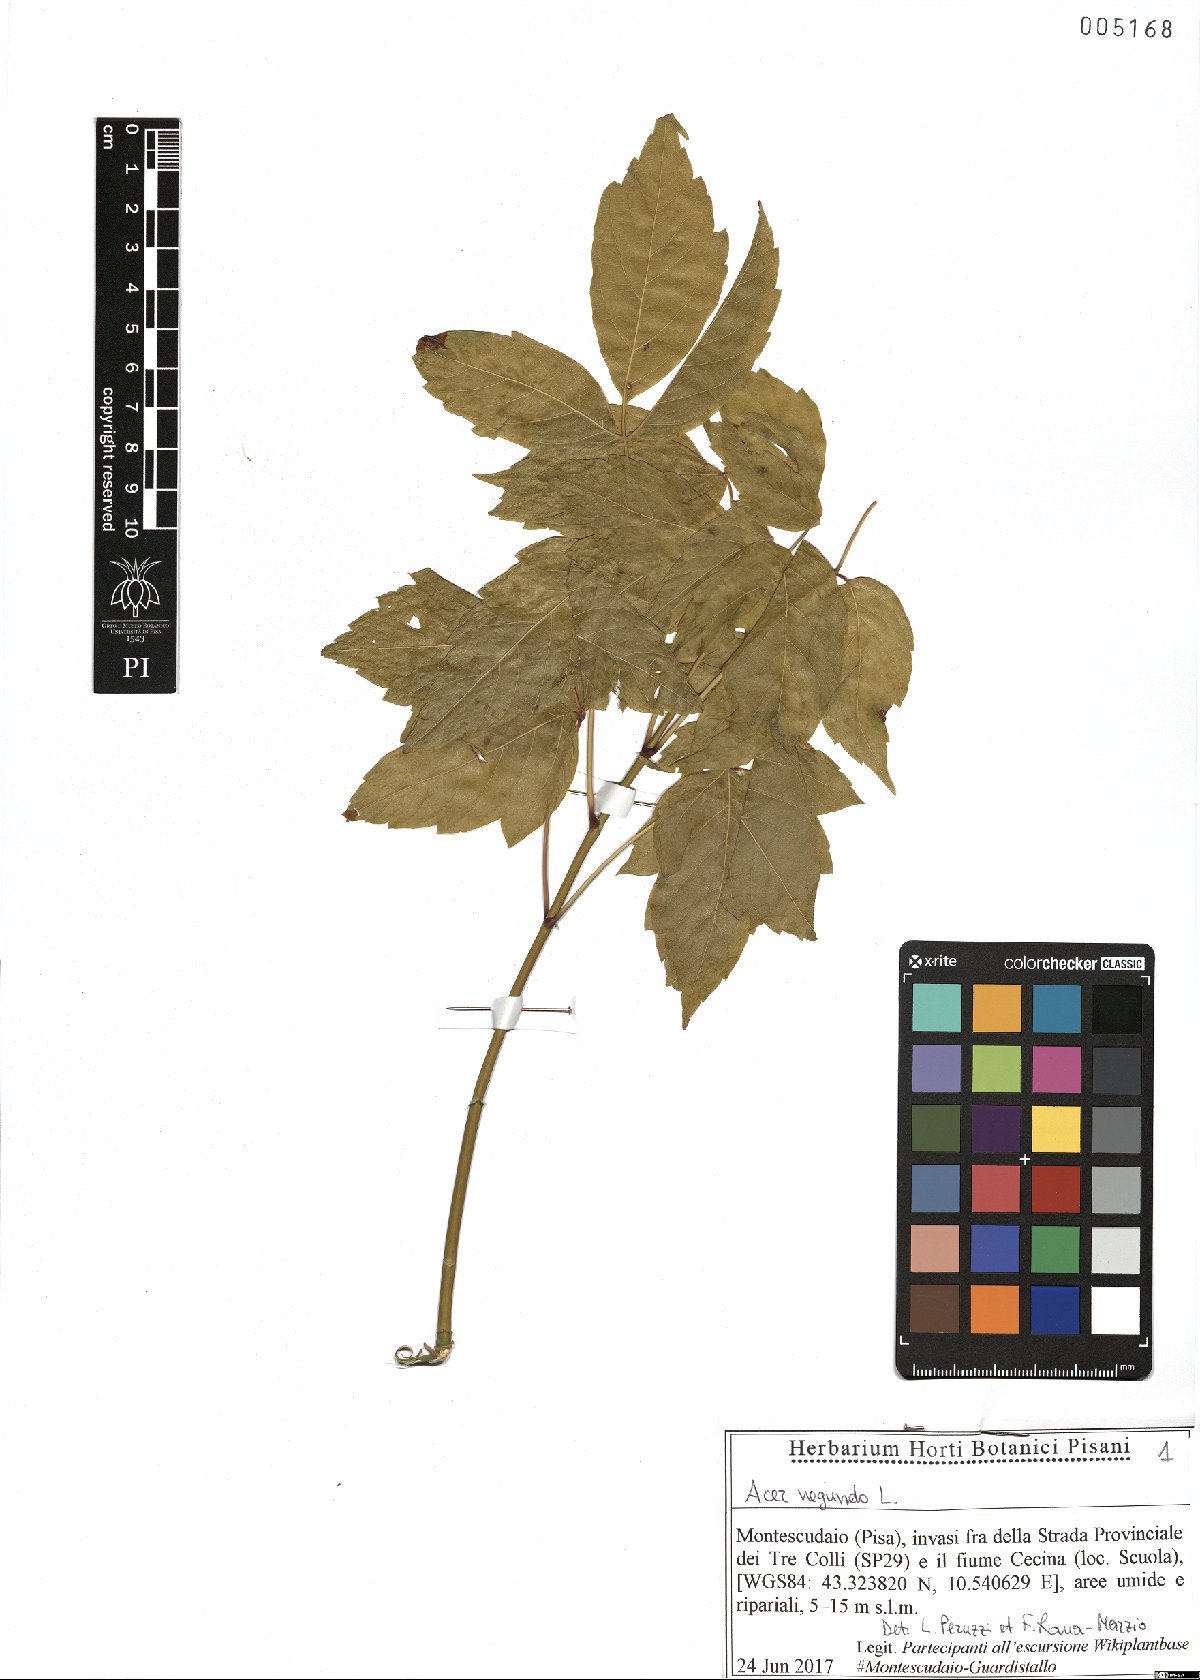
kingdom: Plantae
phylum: Tracheophyta
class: Magnoliopsida
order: Sapindales
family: Sapindaceae
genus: Acer
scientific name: Acer negundo
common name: Ashleaf maple
